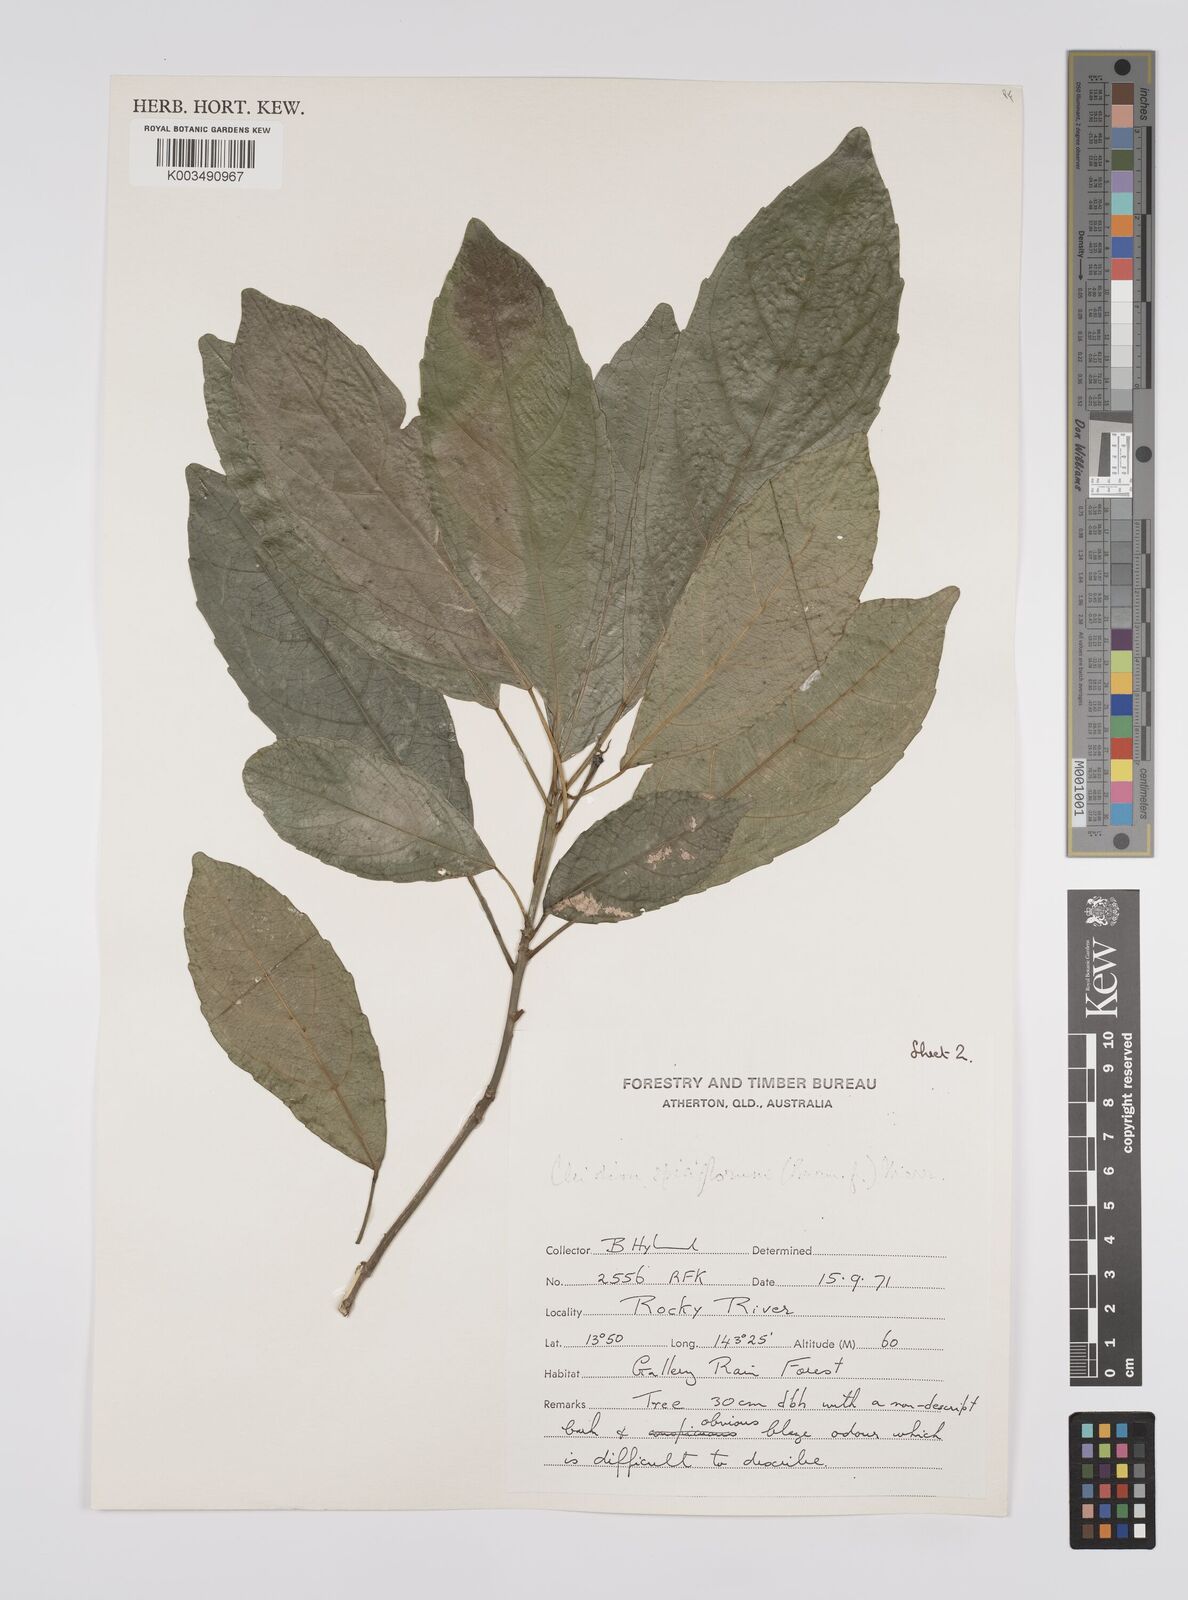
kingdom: Plantae
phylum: Tracheophyta
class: Magnoliopsida
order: Malpighiales
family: Euphorbiaceae
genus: Cleidion
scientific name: Cleidion javanicum
